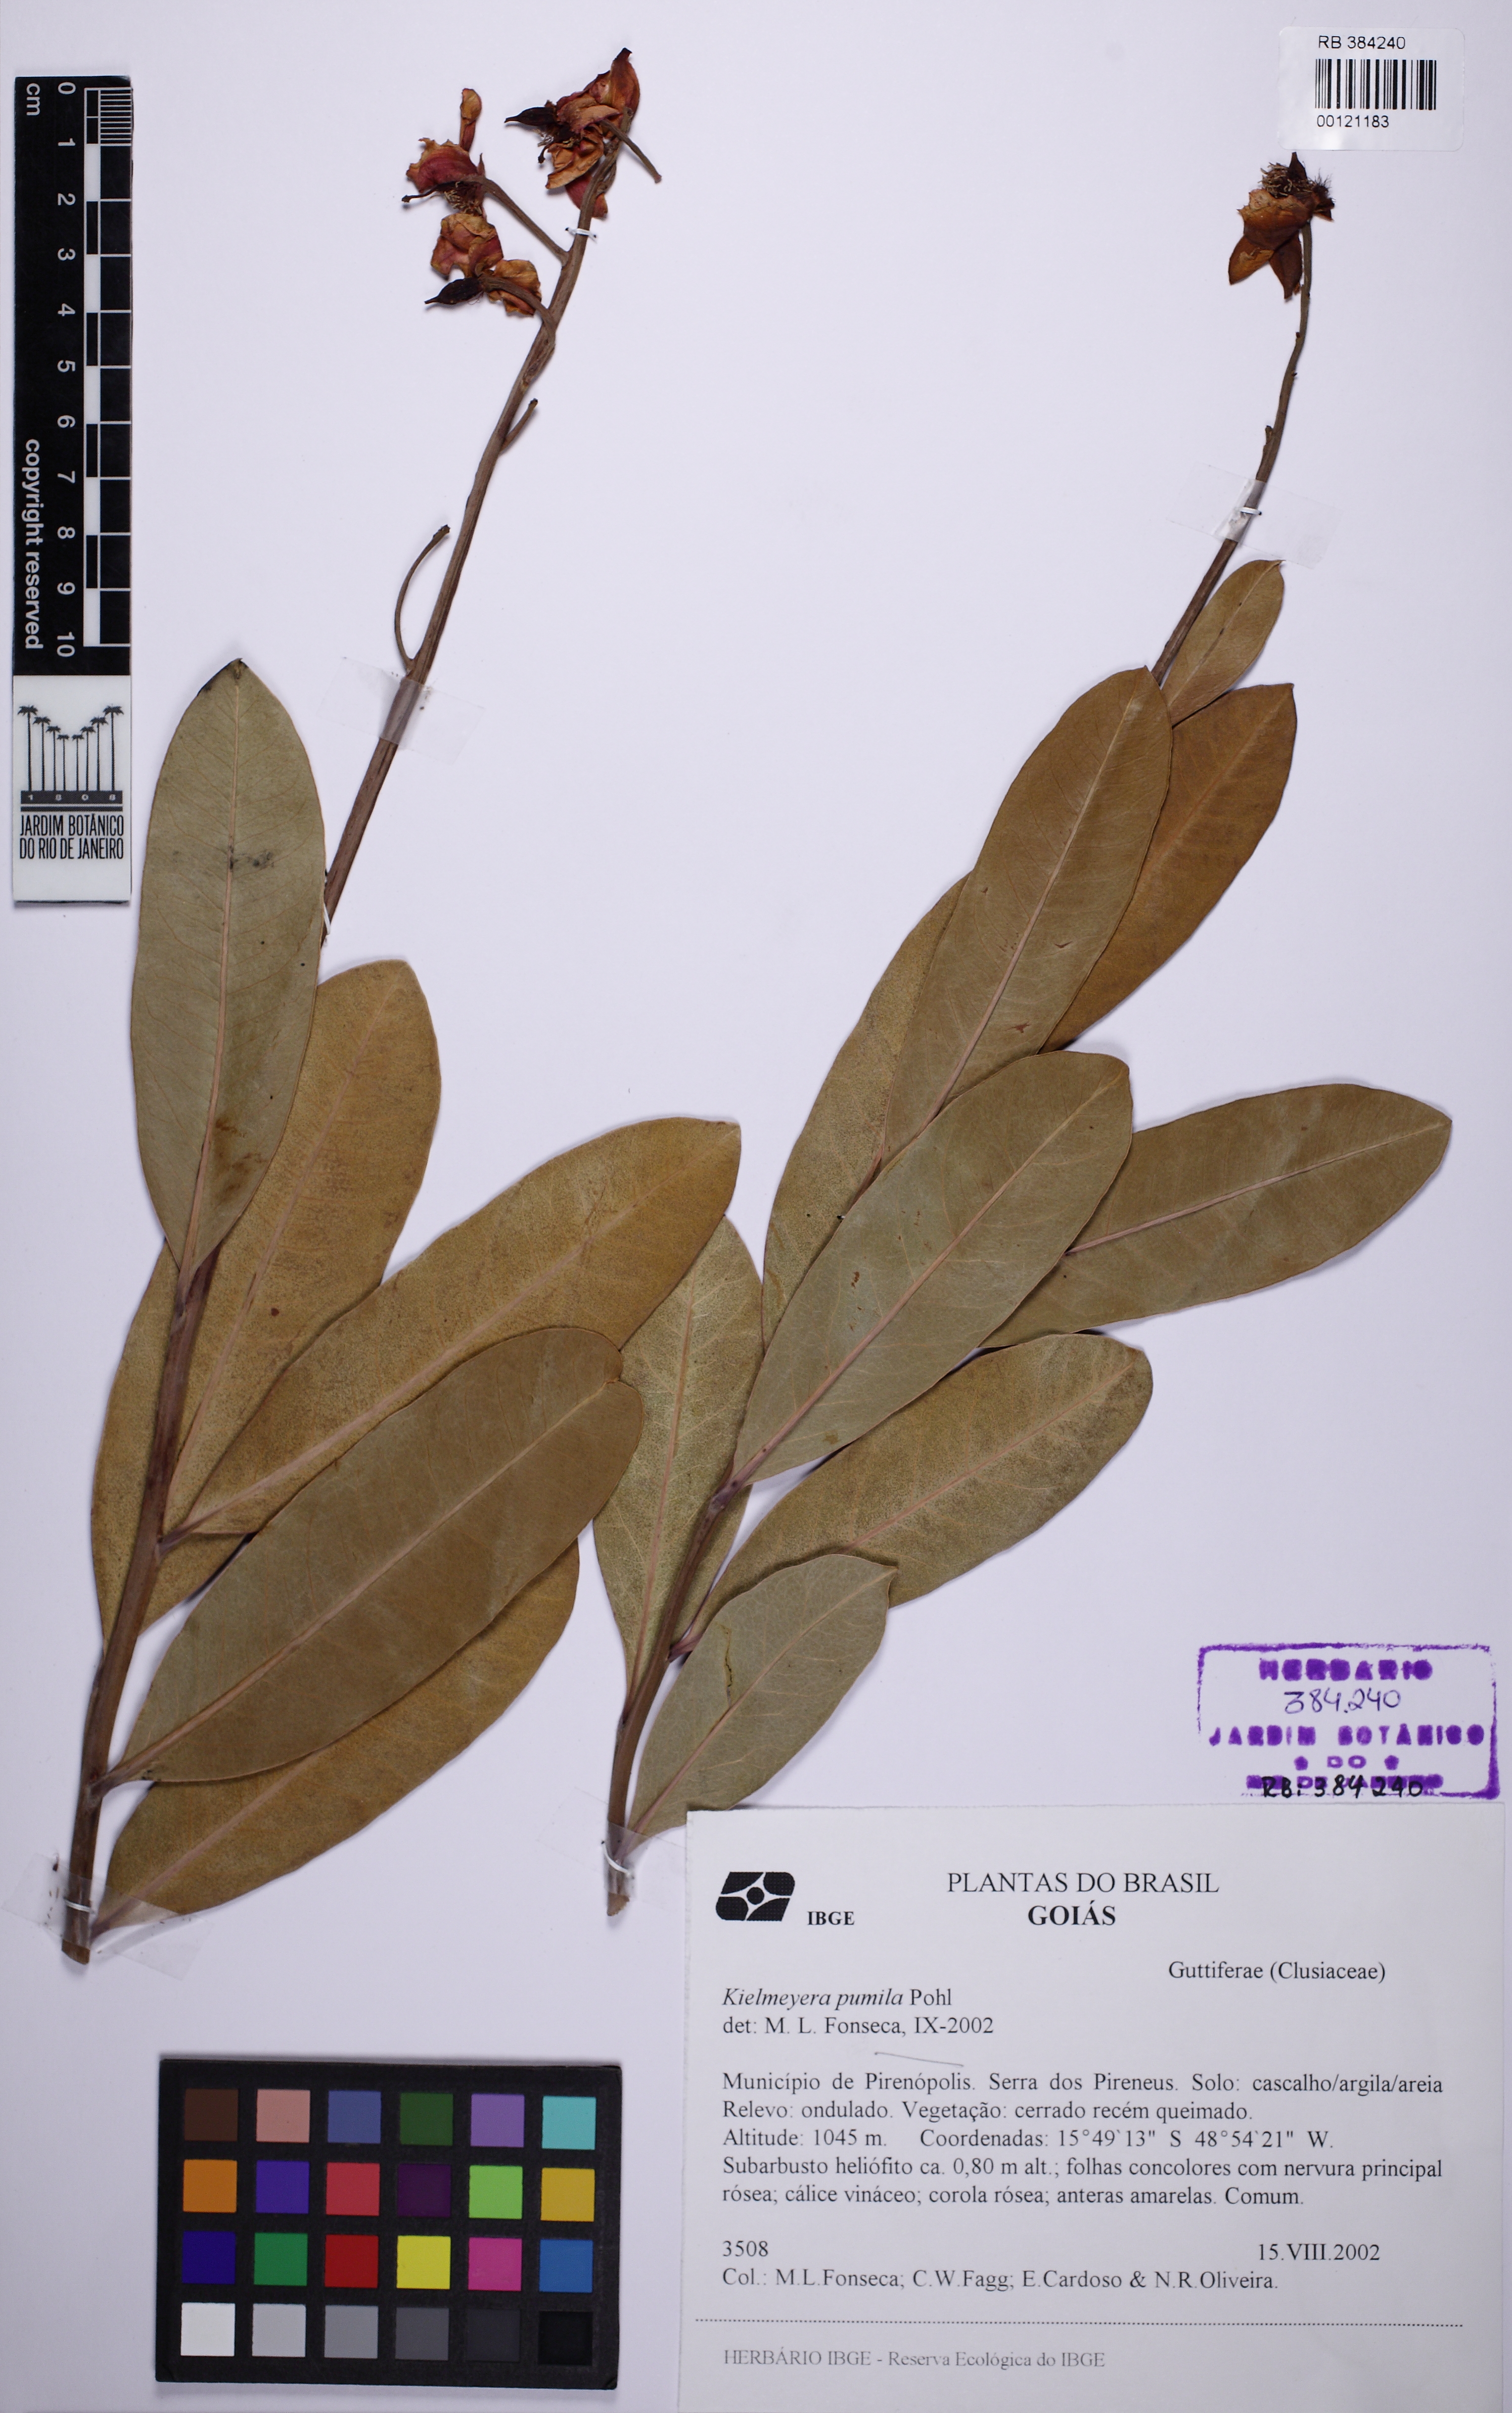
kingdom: Plantae
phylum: Tracheophyta
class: Magnoliopsida
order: Malpighiales
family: Calophyllaceae
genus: Kielmeyera
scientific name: Kielmeyera pumila
